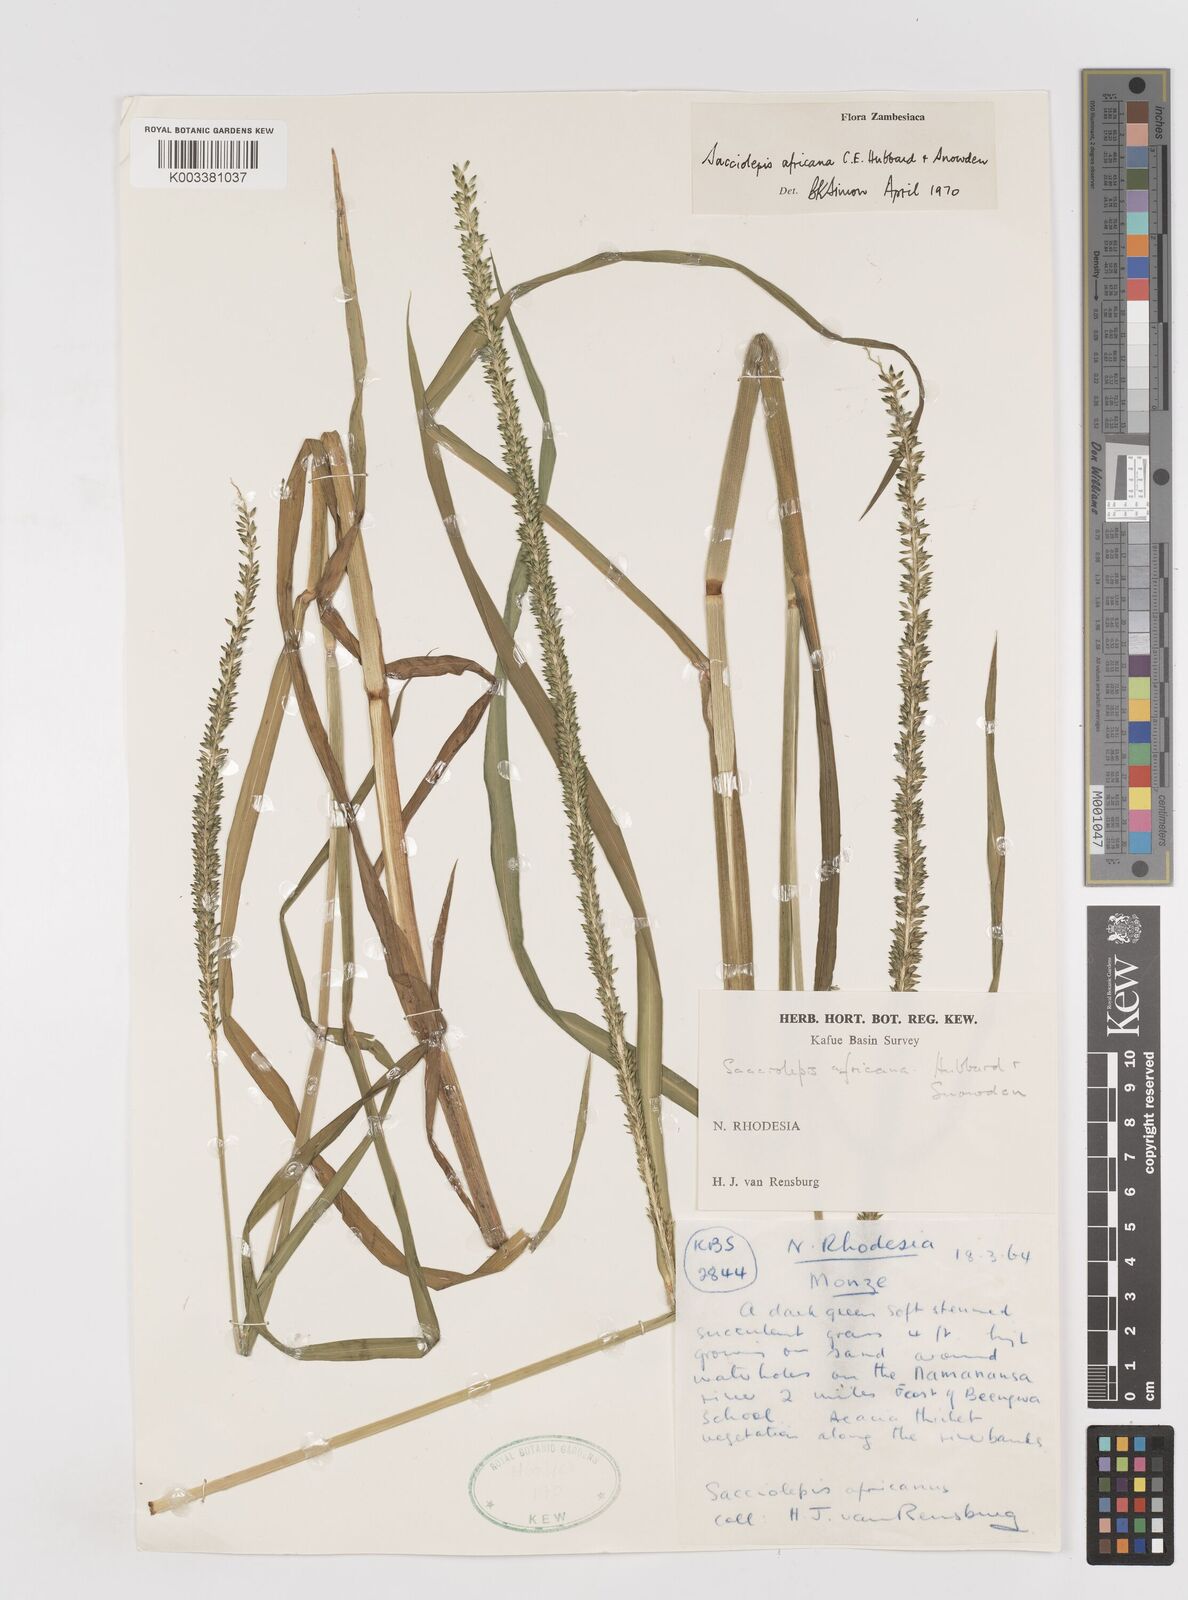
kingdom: Plantae
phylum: Tracheophyta
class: Liliopsida
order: Poales
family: Poaceae
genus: Sacciolepis
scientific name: Sacciolepis africana
